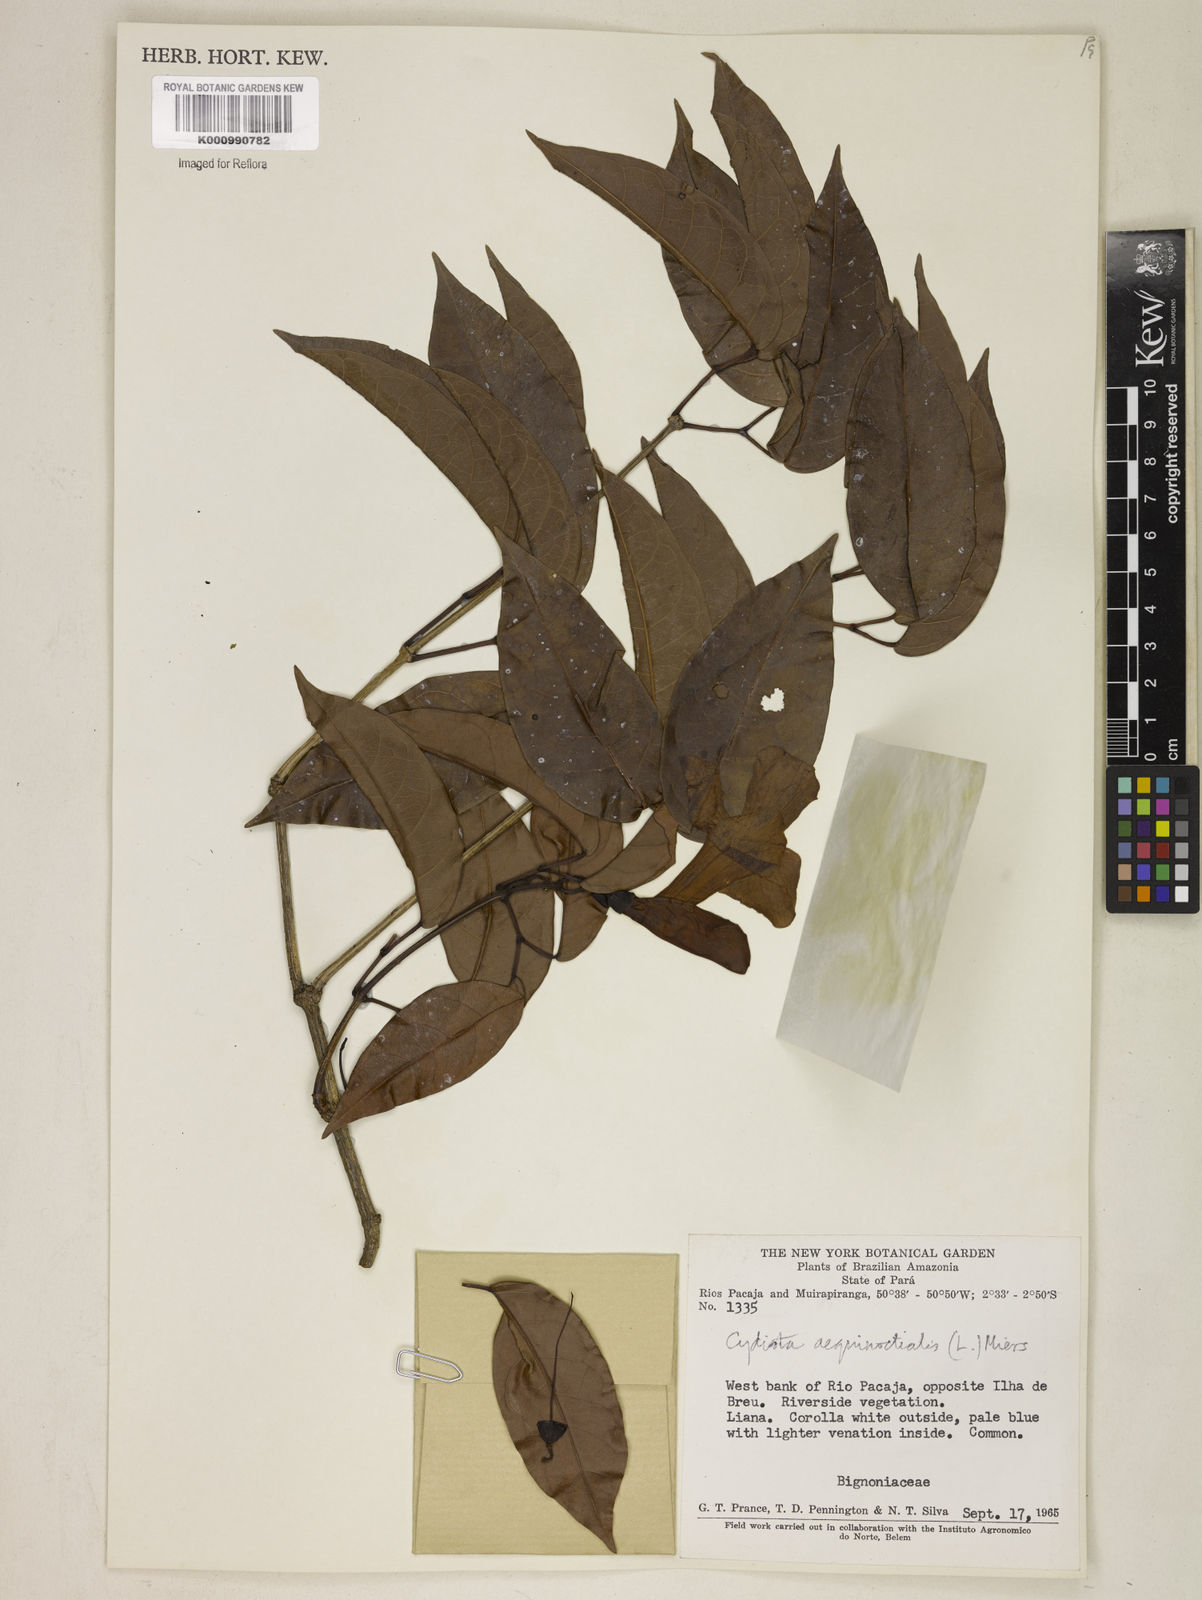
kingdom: Plantae
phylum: Tracheophyta
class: Magnoliopsida
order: Lamiales
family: Bignoniaceae
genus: Bignonia
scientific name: Bignonia aequinoctialis
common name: Garlicvine
